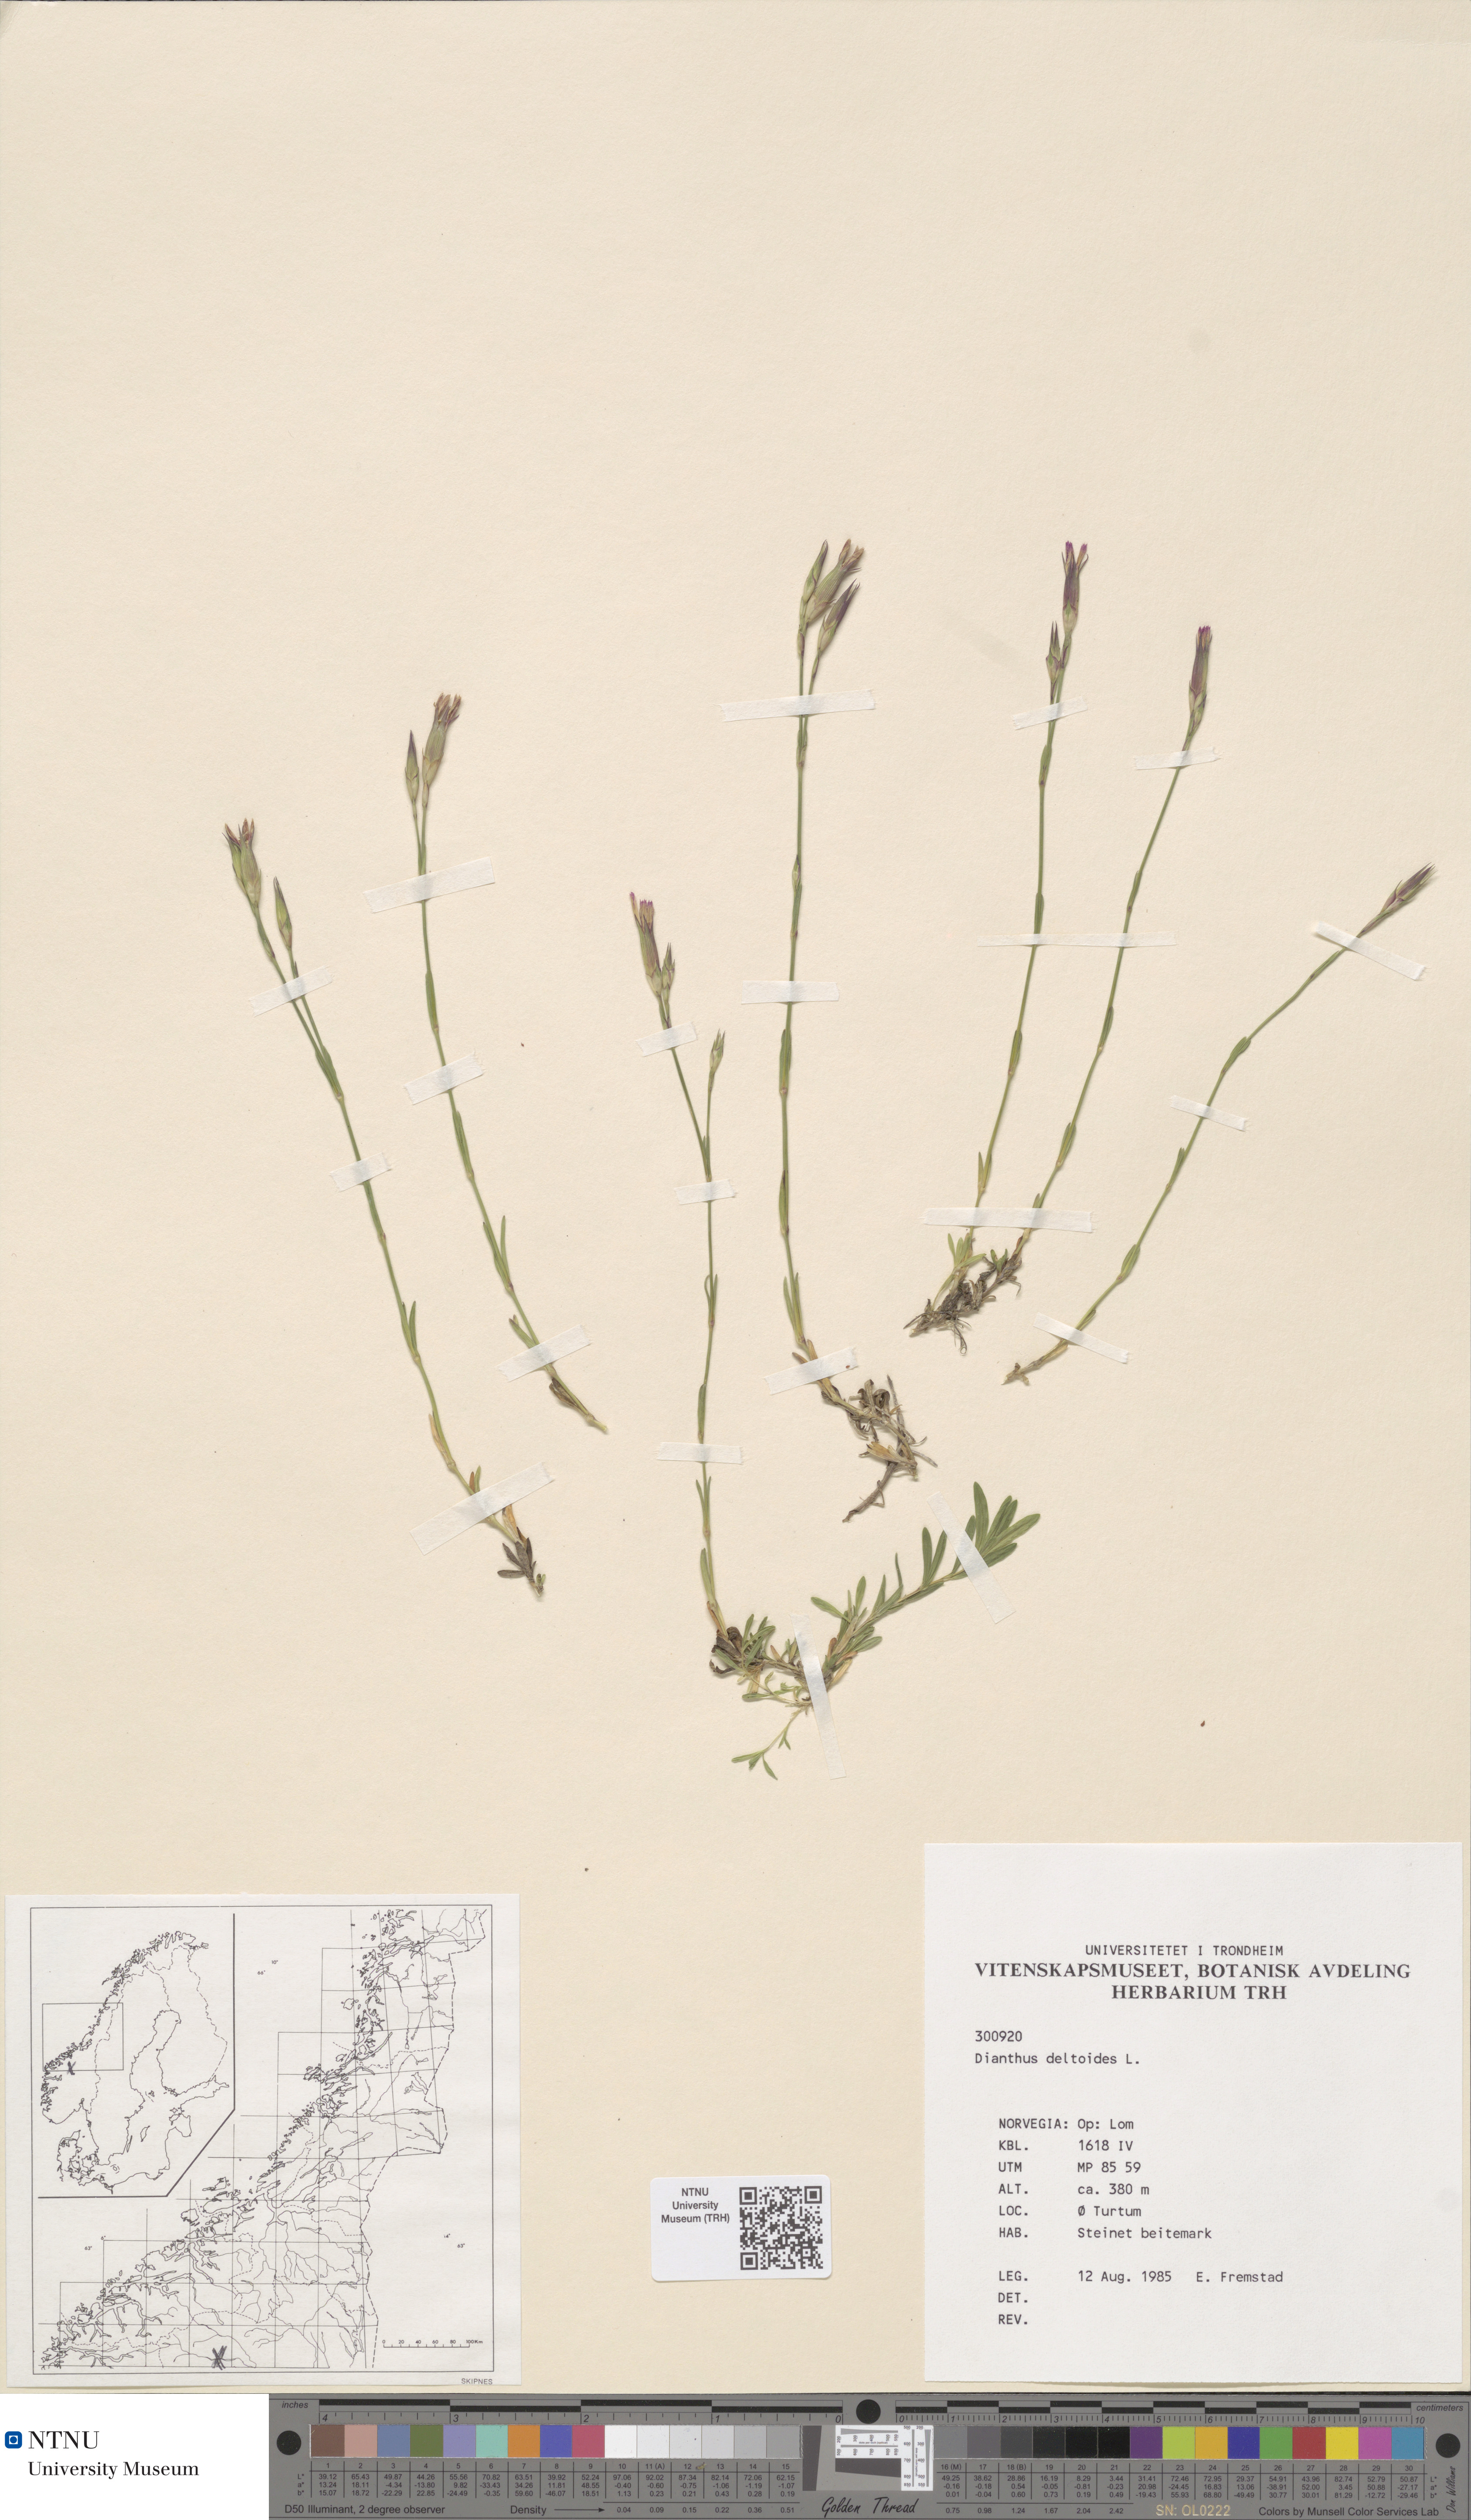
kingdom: Plantae
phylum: Tracheophyta
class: Magnoliopsida
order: Caryophyllales
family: Caryophyllaceae
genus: Dianthus
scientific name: Dianthus deltoides
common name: Maiden pink
